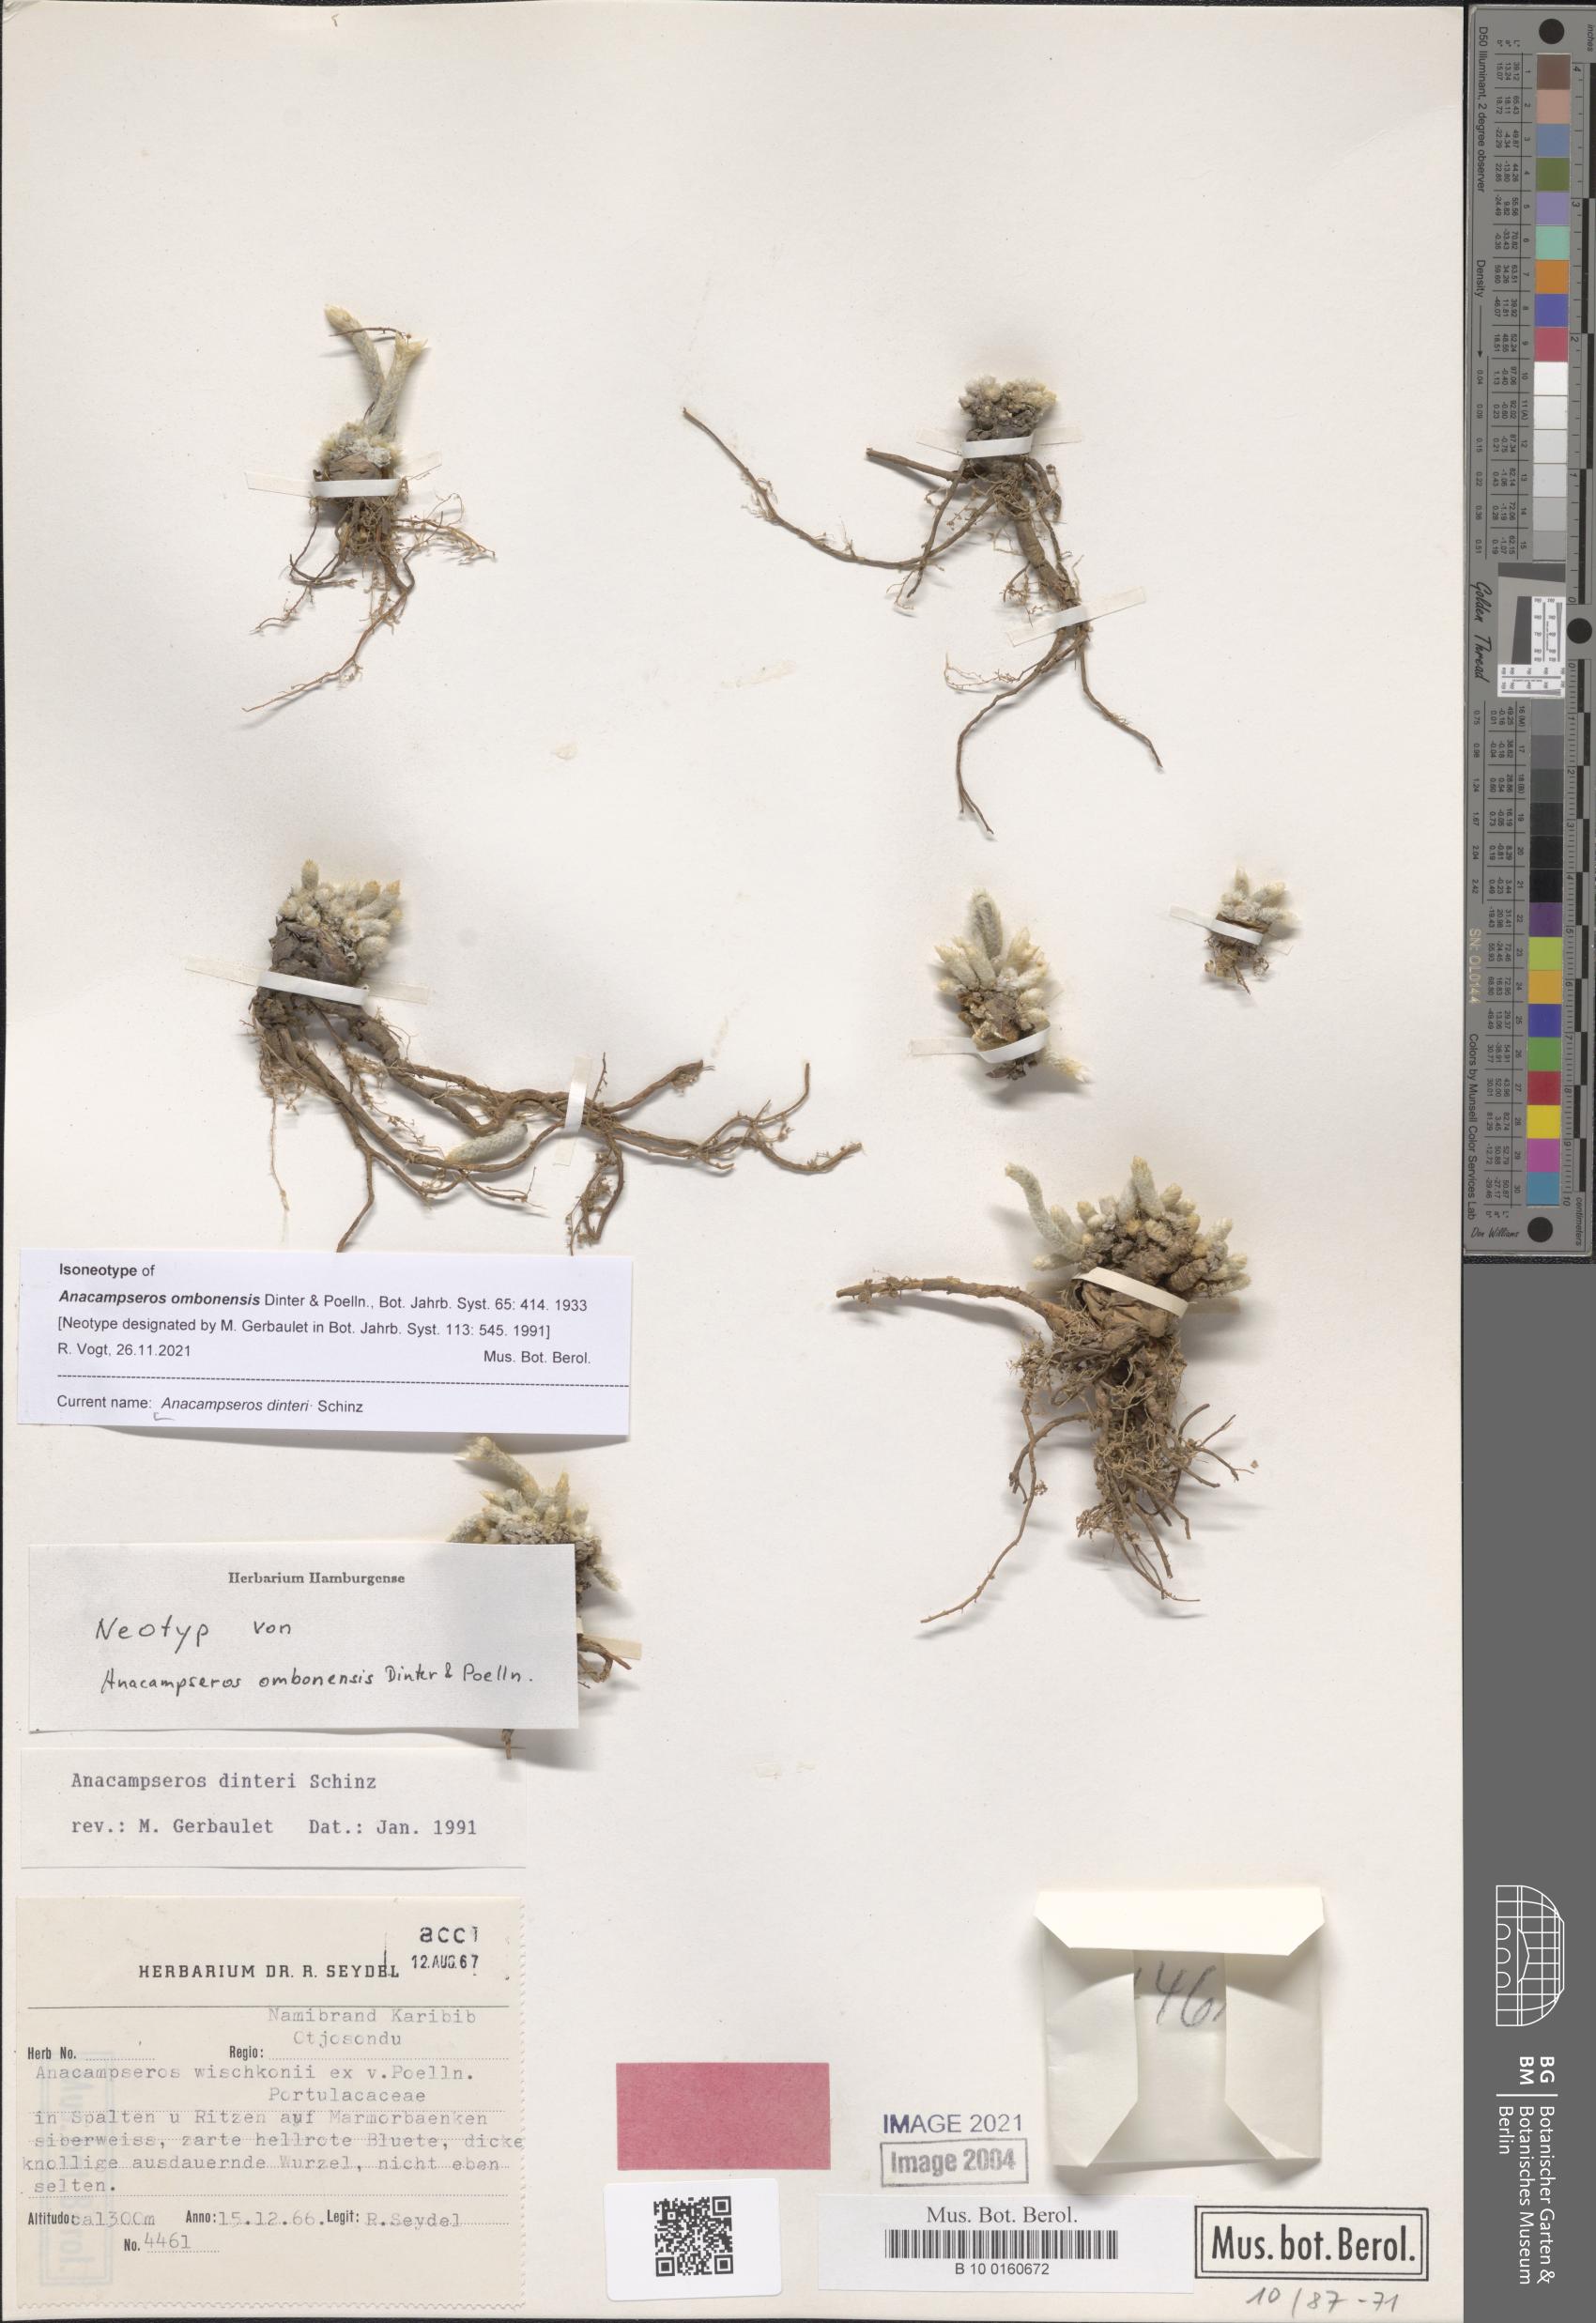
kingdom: Plantae
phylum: Tracheophyta
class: Magnoliopsida
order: Caryophyllales
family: Anacampserotaceae
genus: Avonia
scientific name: Avonia dinteri
